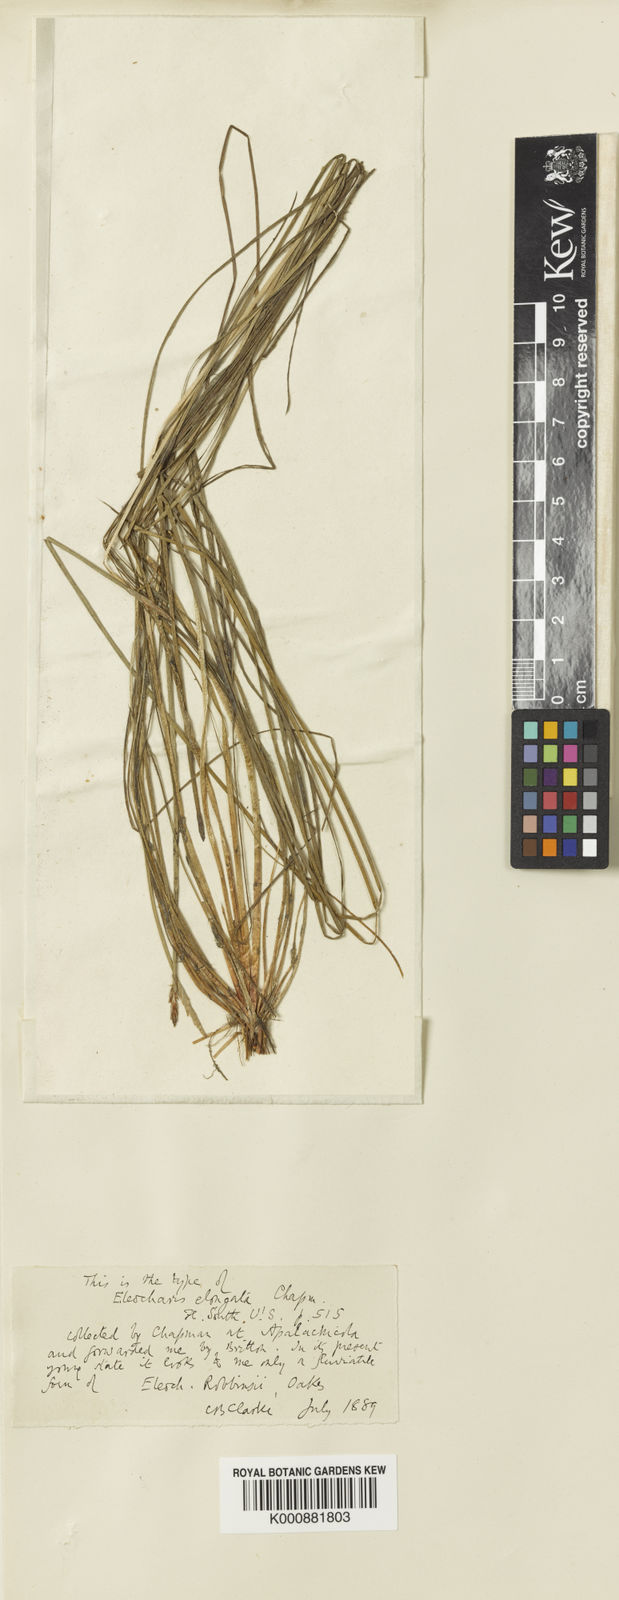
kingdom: Plantae
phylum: Tracheophyta
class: Liliopsida
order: Poales
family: Cyperaceae
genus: Eleocharis
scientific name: Eleocharis robbinsii
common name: Robbins' spikerush
